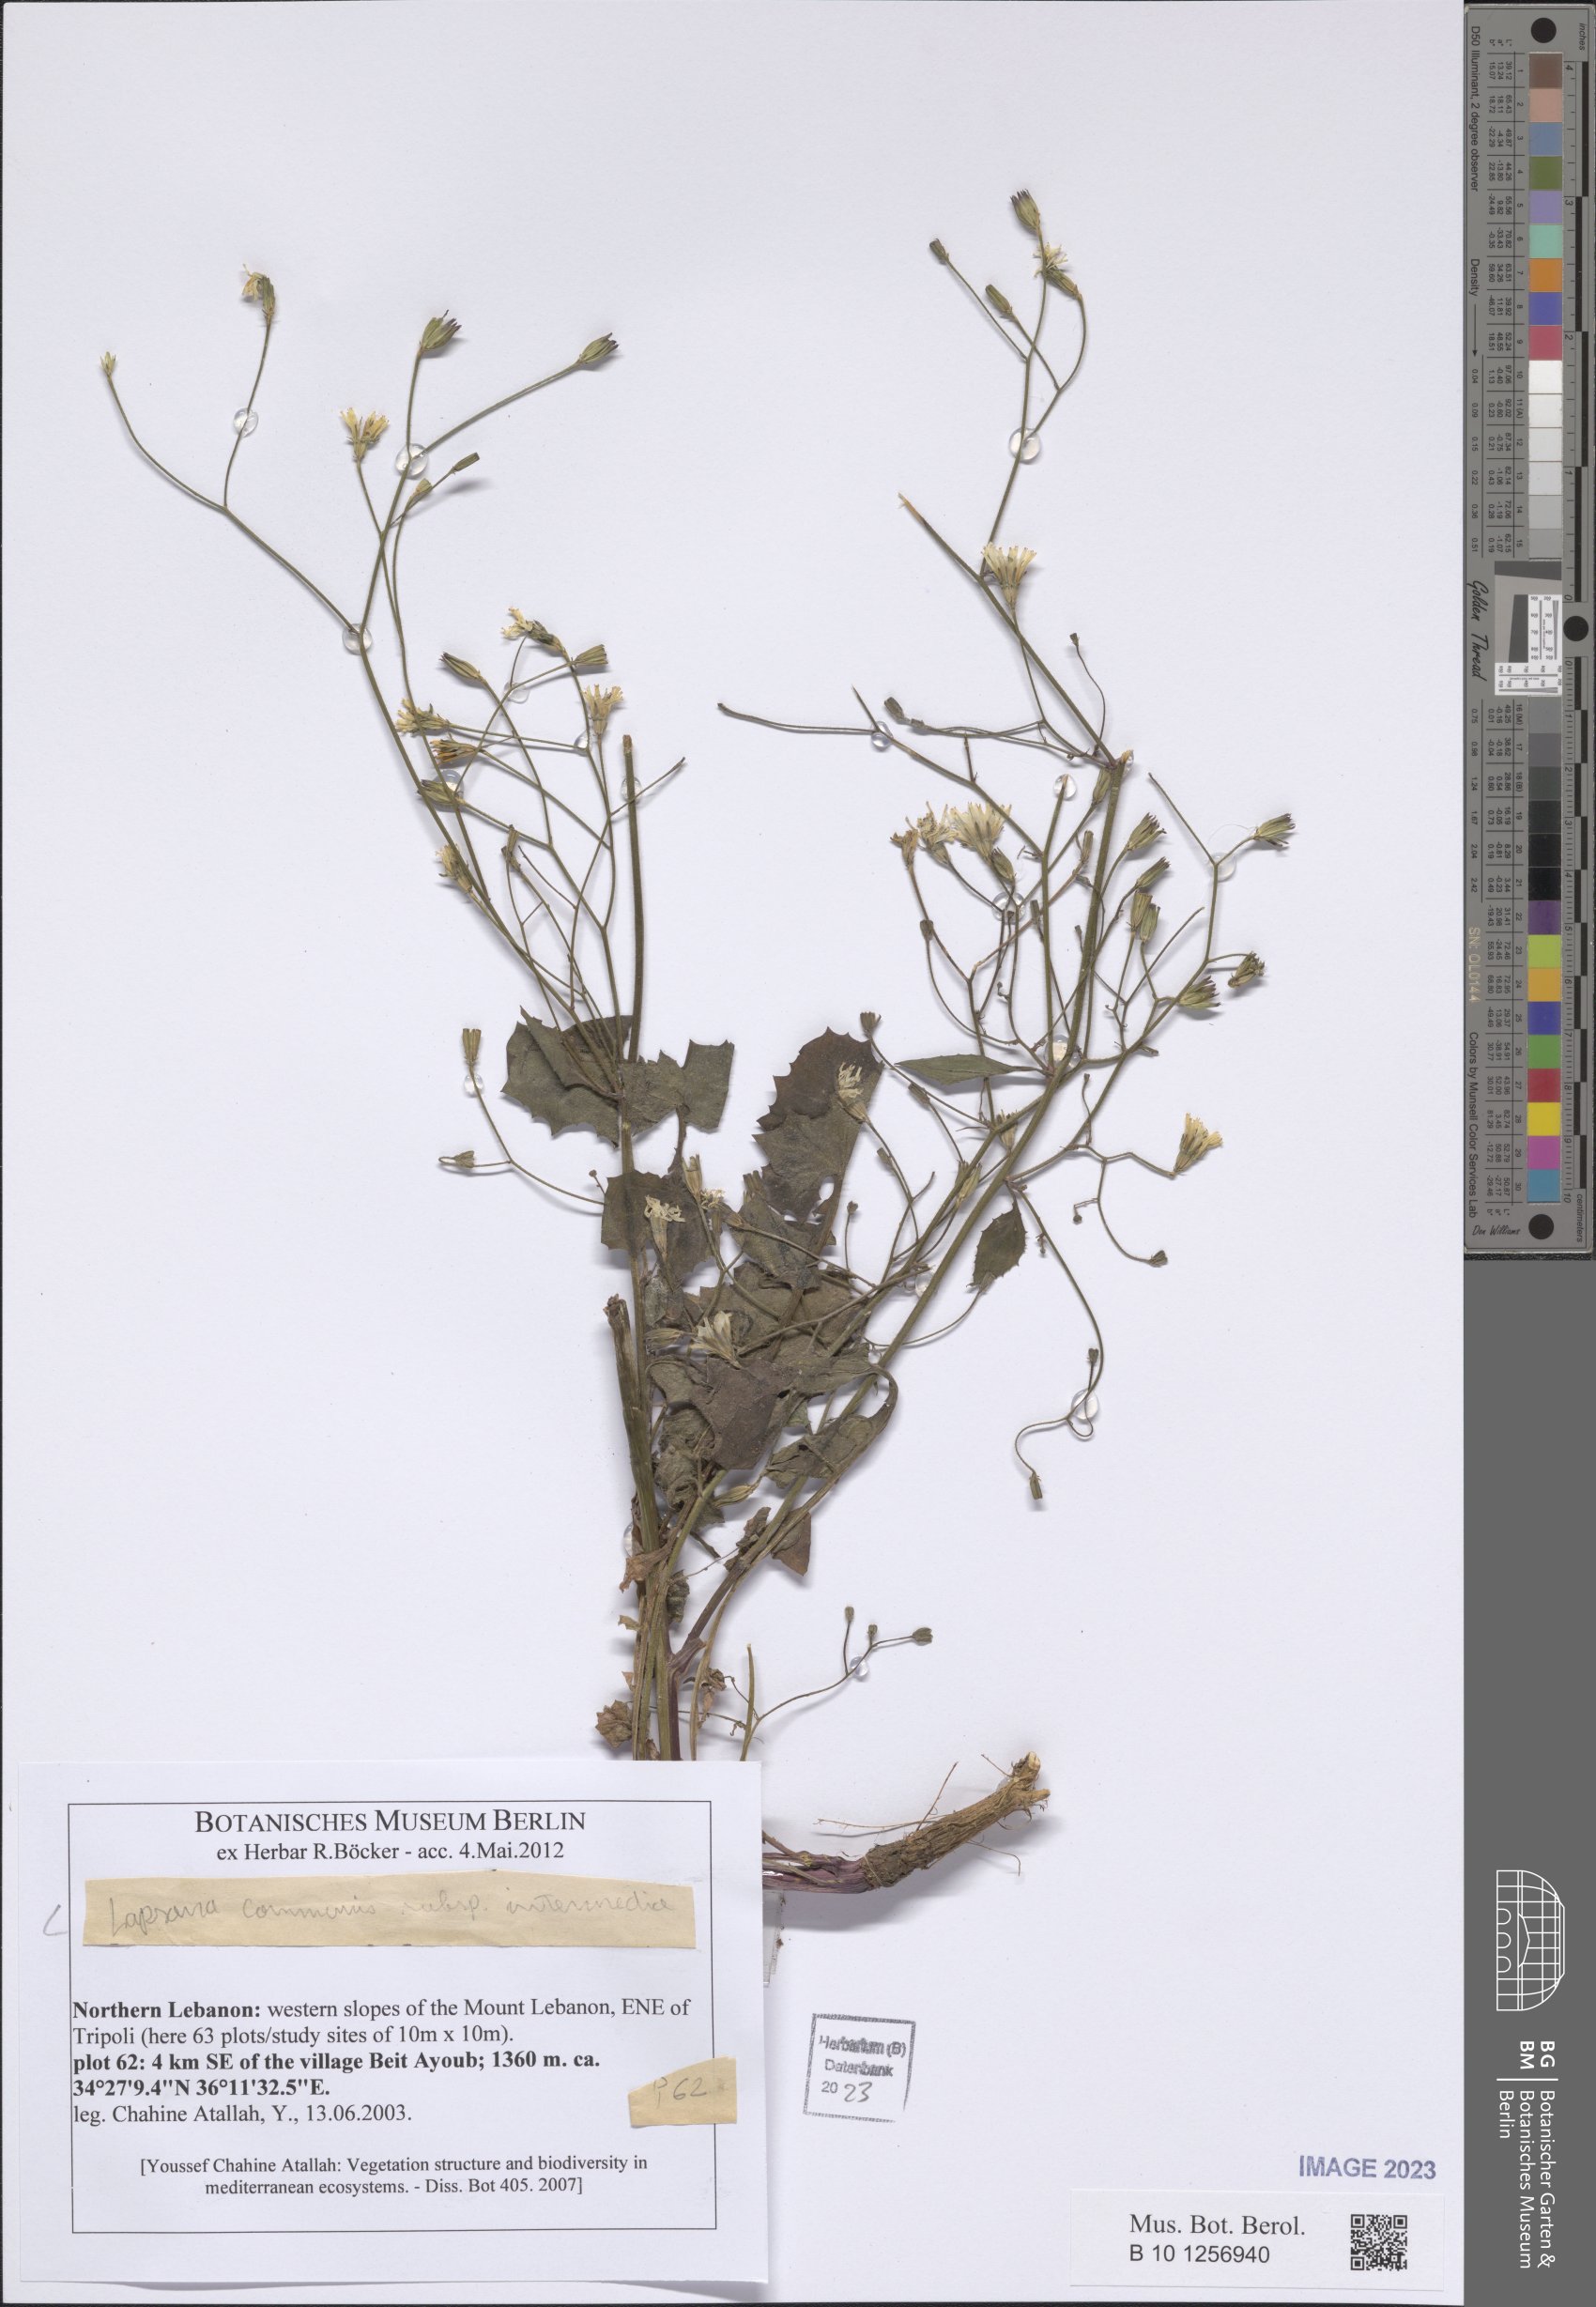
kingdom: Plantae
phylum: Tracheophyta
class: Magnoliopsida
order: Asterales
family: Asteraceae
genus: Lapsana
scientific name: Lapsana communis
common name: Nipplewort
